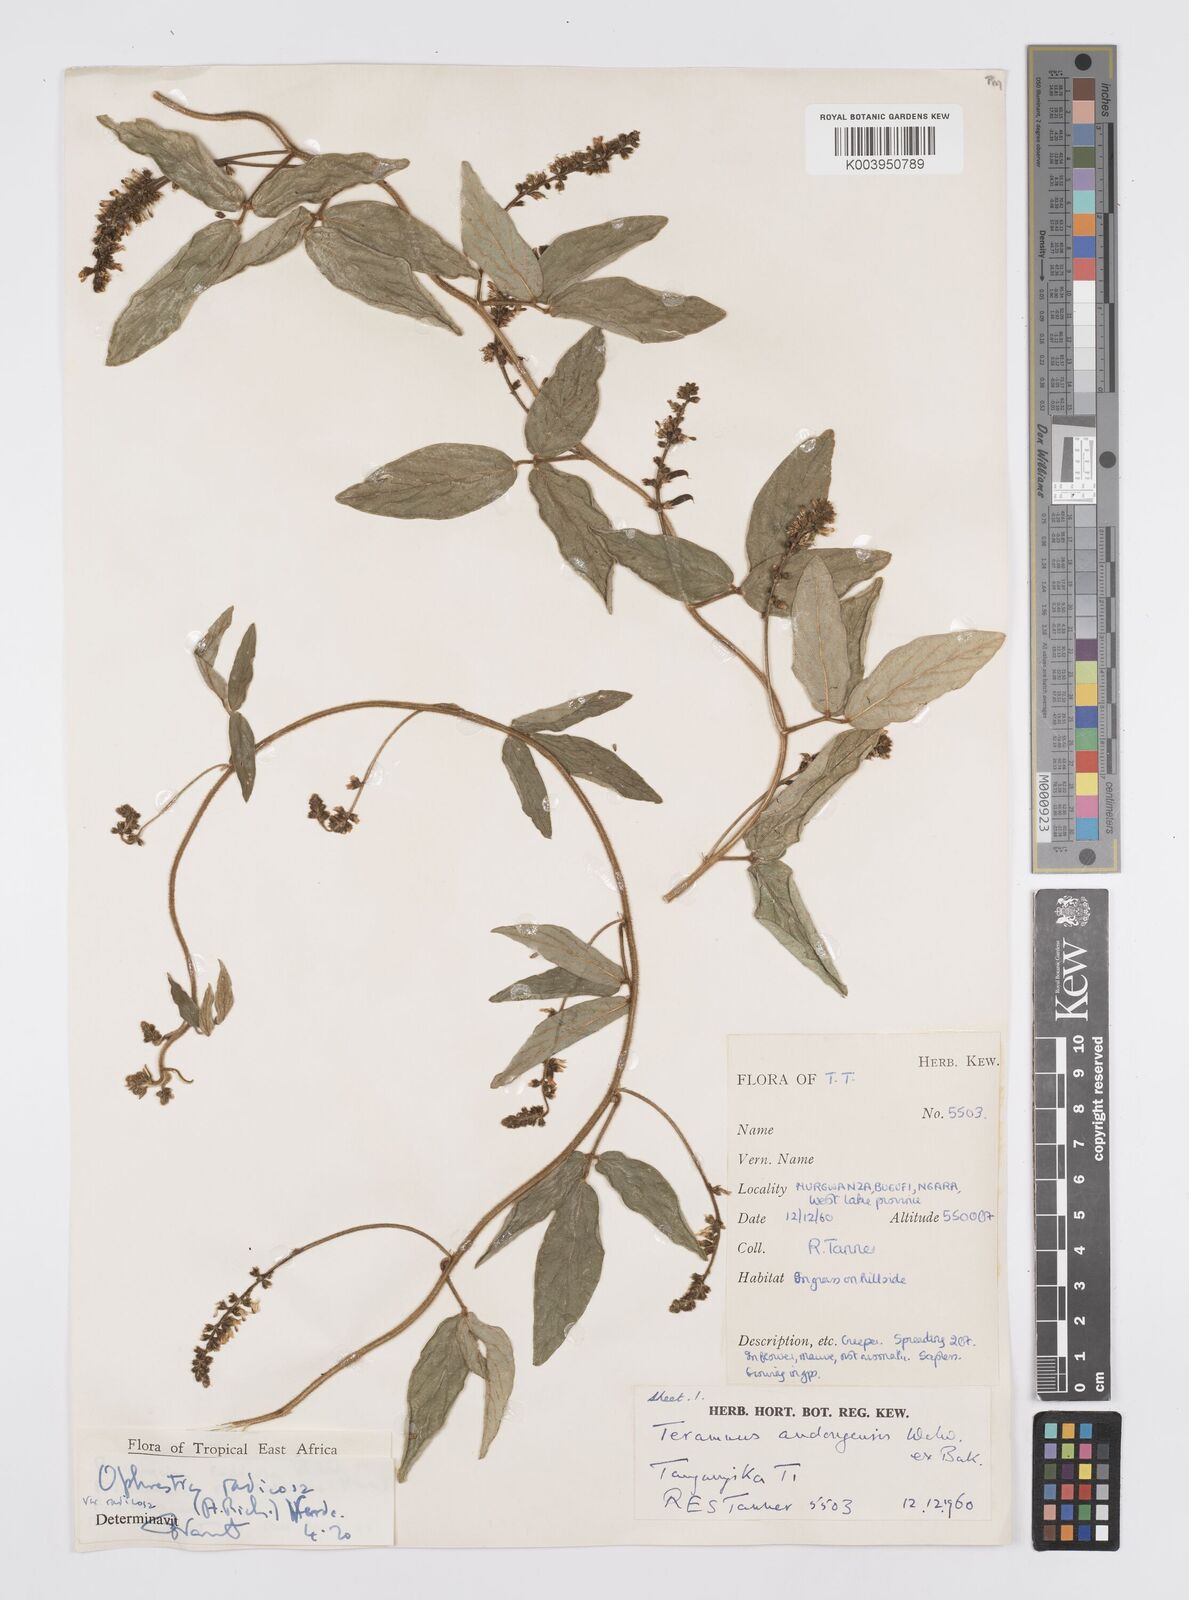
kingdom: Plantae
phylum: Tracheophyta
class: Magnoliopsida
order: Fabales
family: Fabaceae
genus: Ophrestia
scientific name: Ophrestia radicosa
